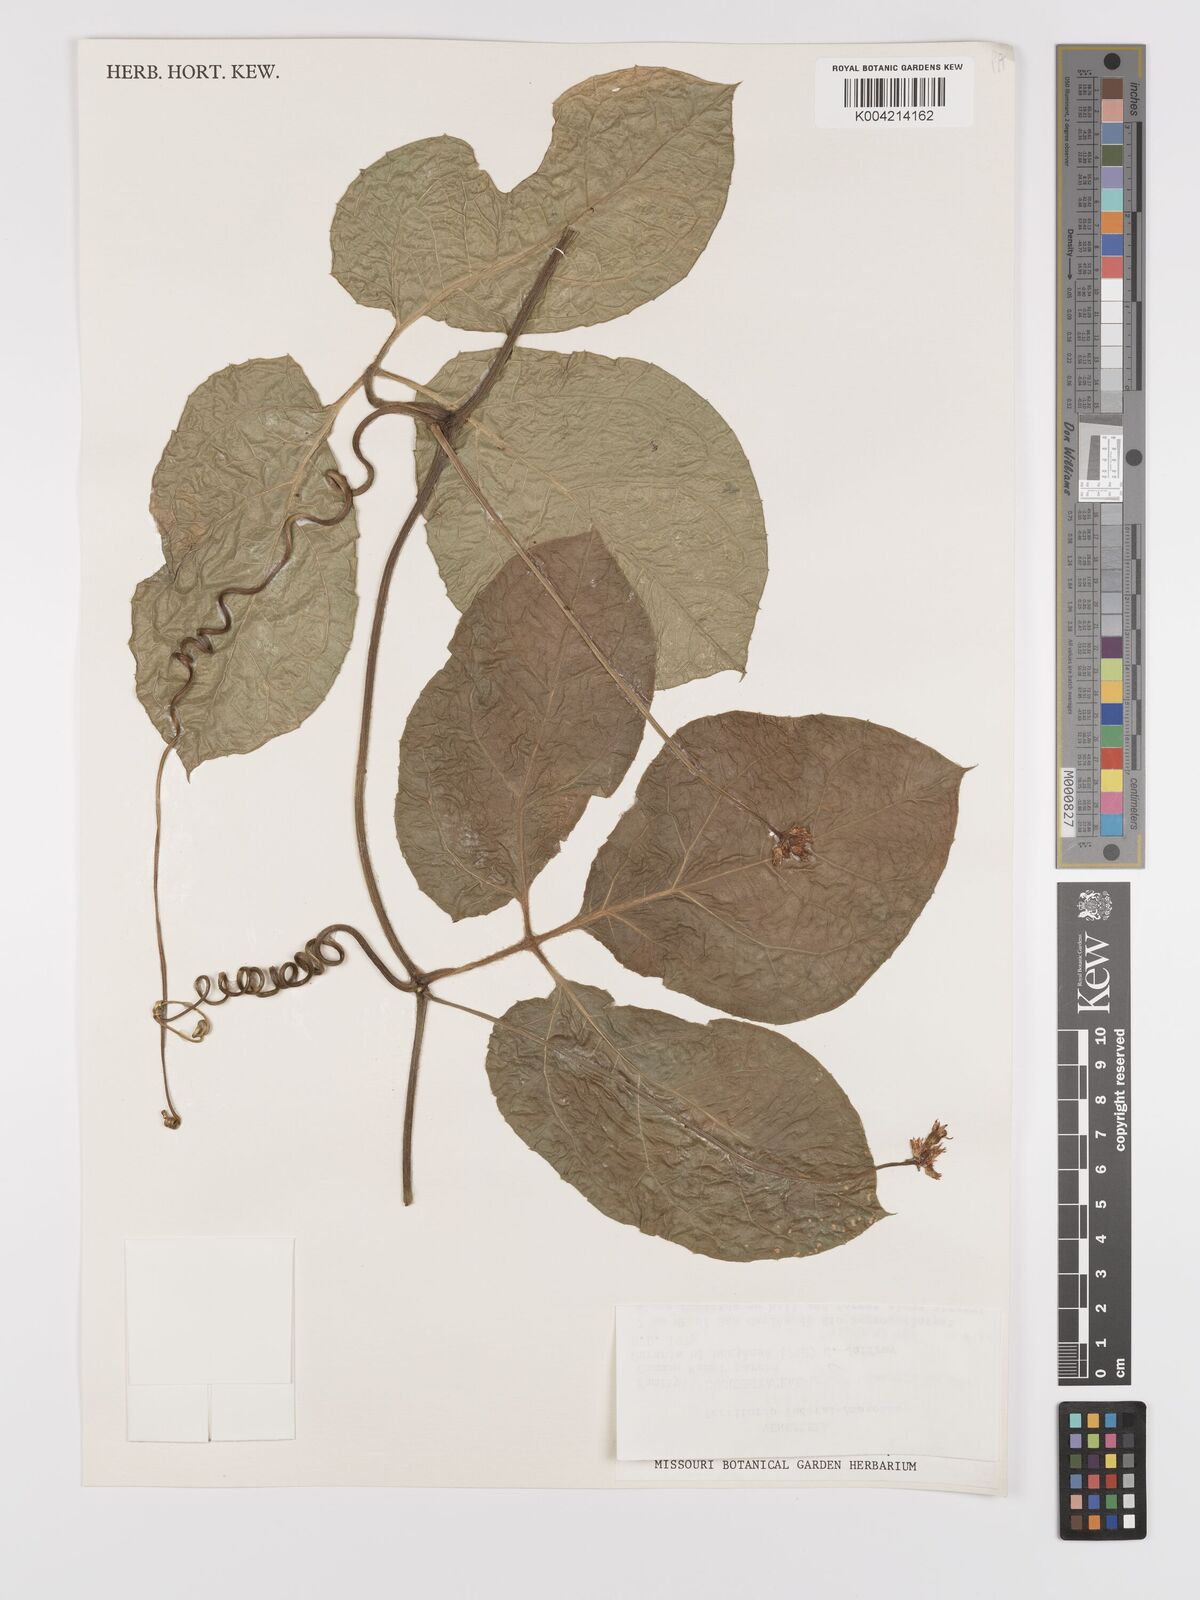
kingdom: Plantae
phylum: Tracheophyta
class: Magnoliopsida
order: Cucurbitales
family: Cucurbitaceae
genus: Gurania
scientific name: Gurania bignoniacea
